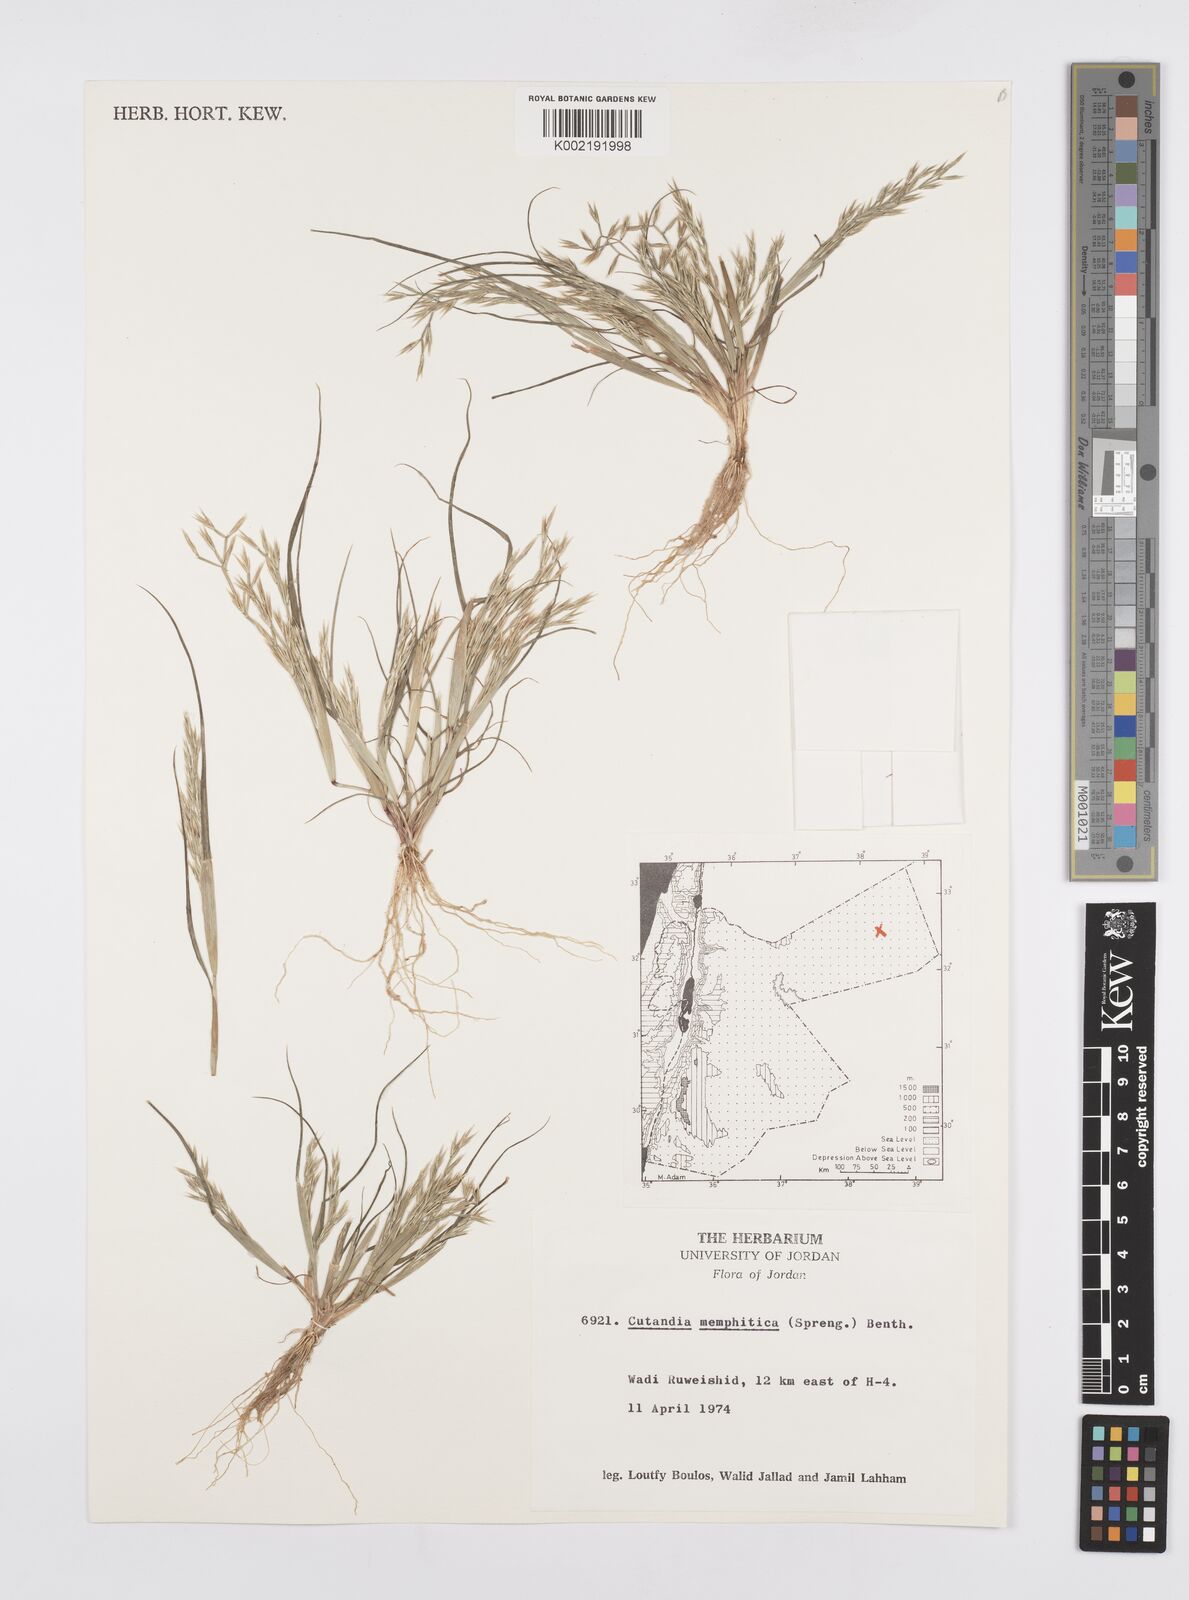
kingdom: Plantae
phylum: Tracheophyta
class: Liliopsida
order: Poales
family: Poaceae
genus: Cutandia
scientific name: Cutandia memphitica
